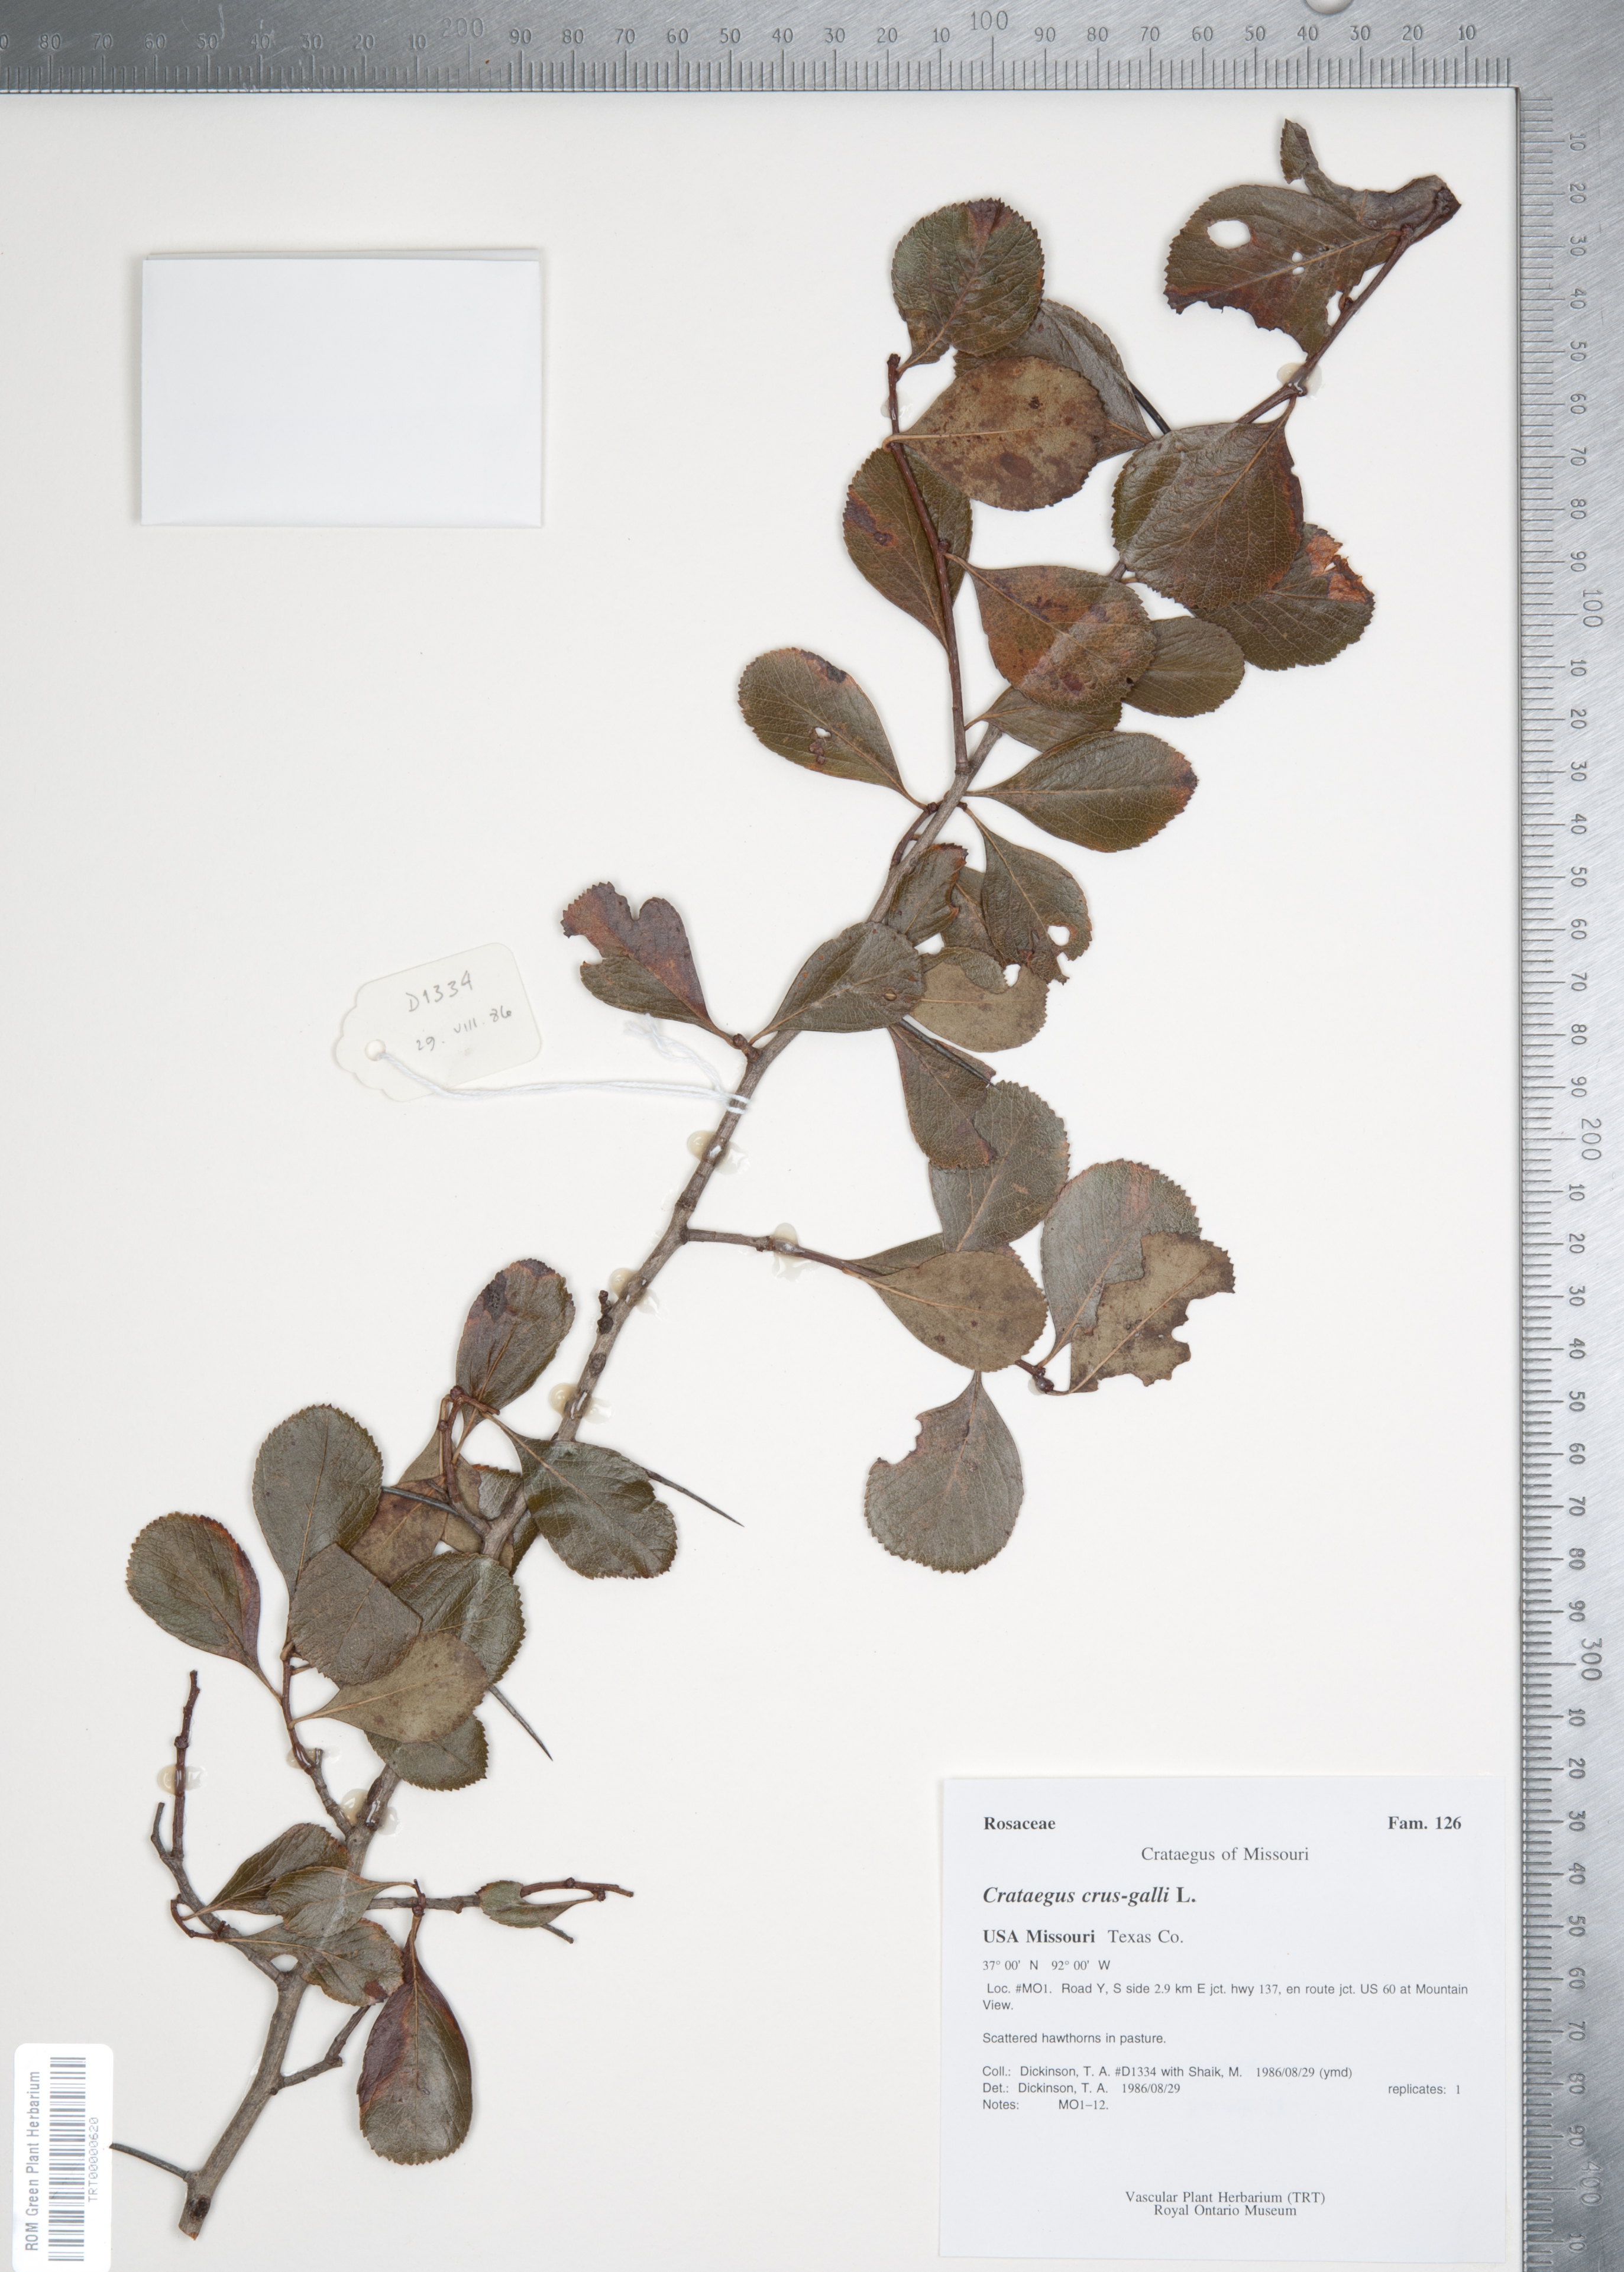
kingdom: Plantae
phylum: Tracheophyta
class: Magnoliopsida
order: Rosales
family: Rosaceae
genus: Crataegus
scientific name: Crataegus crus-galli
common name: Cockspurthorn
